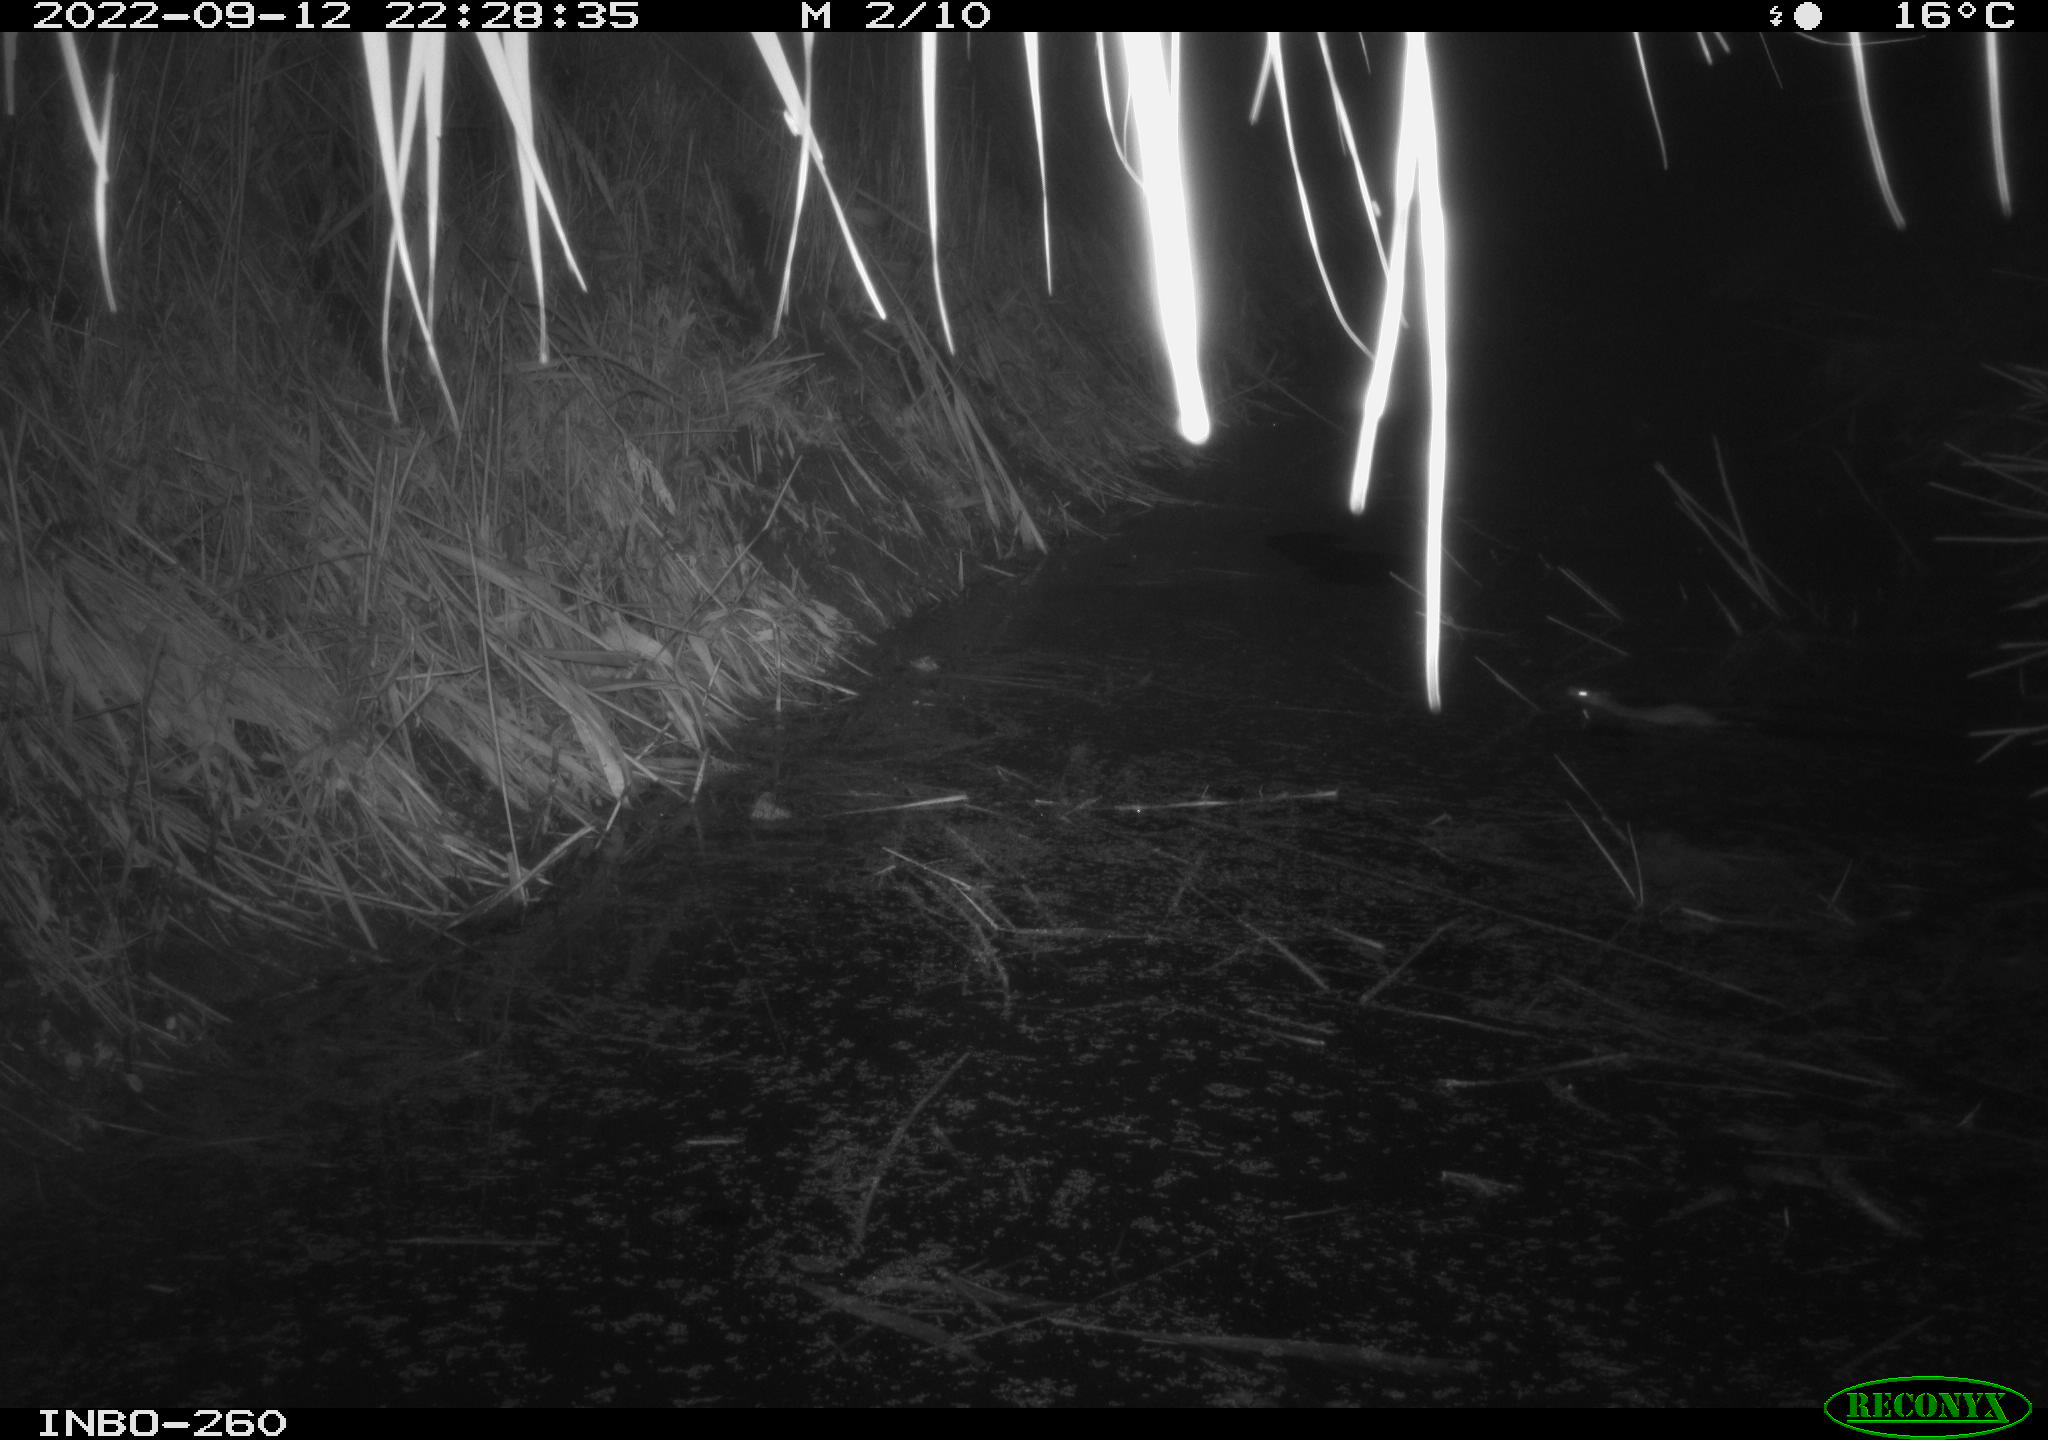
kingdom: Animalia
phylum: Chordata
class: Mammalia
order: Rodentia
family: Muridae
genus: Rattus
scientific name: Rattus norvegicus
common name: Brown rat
